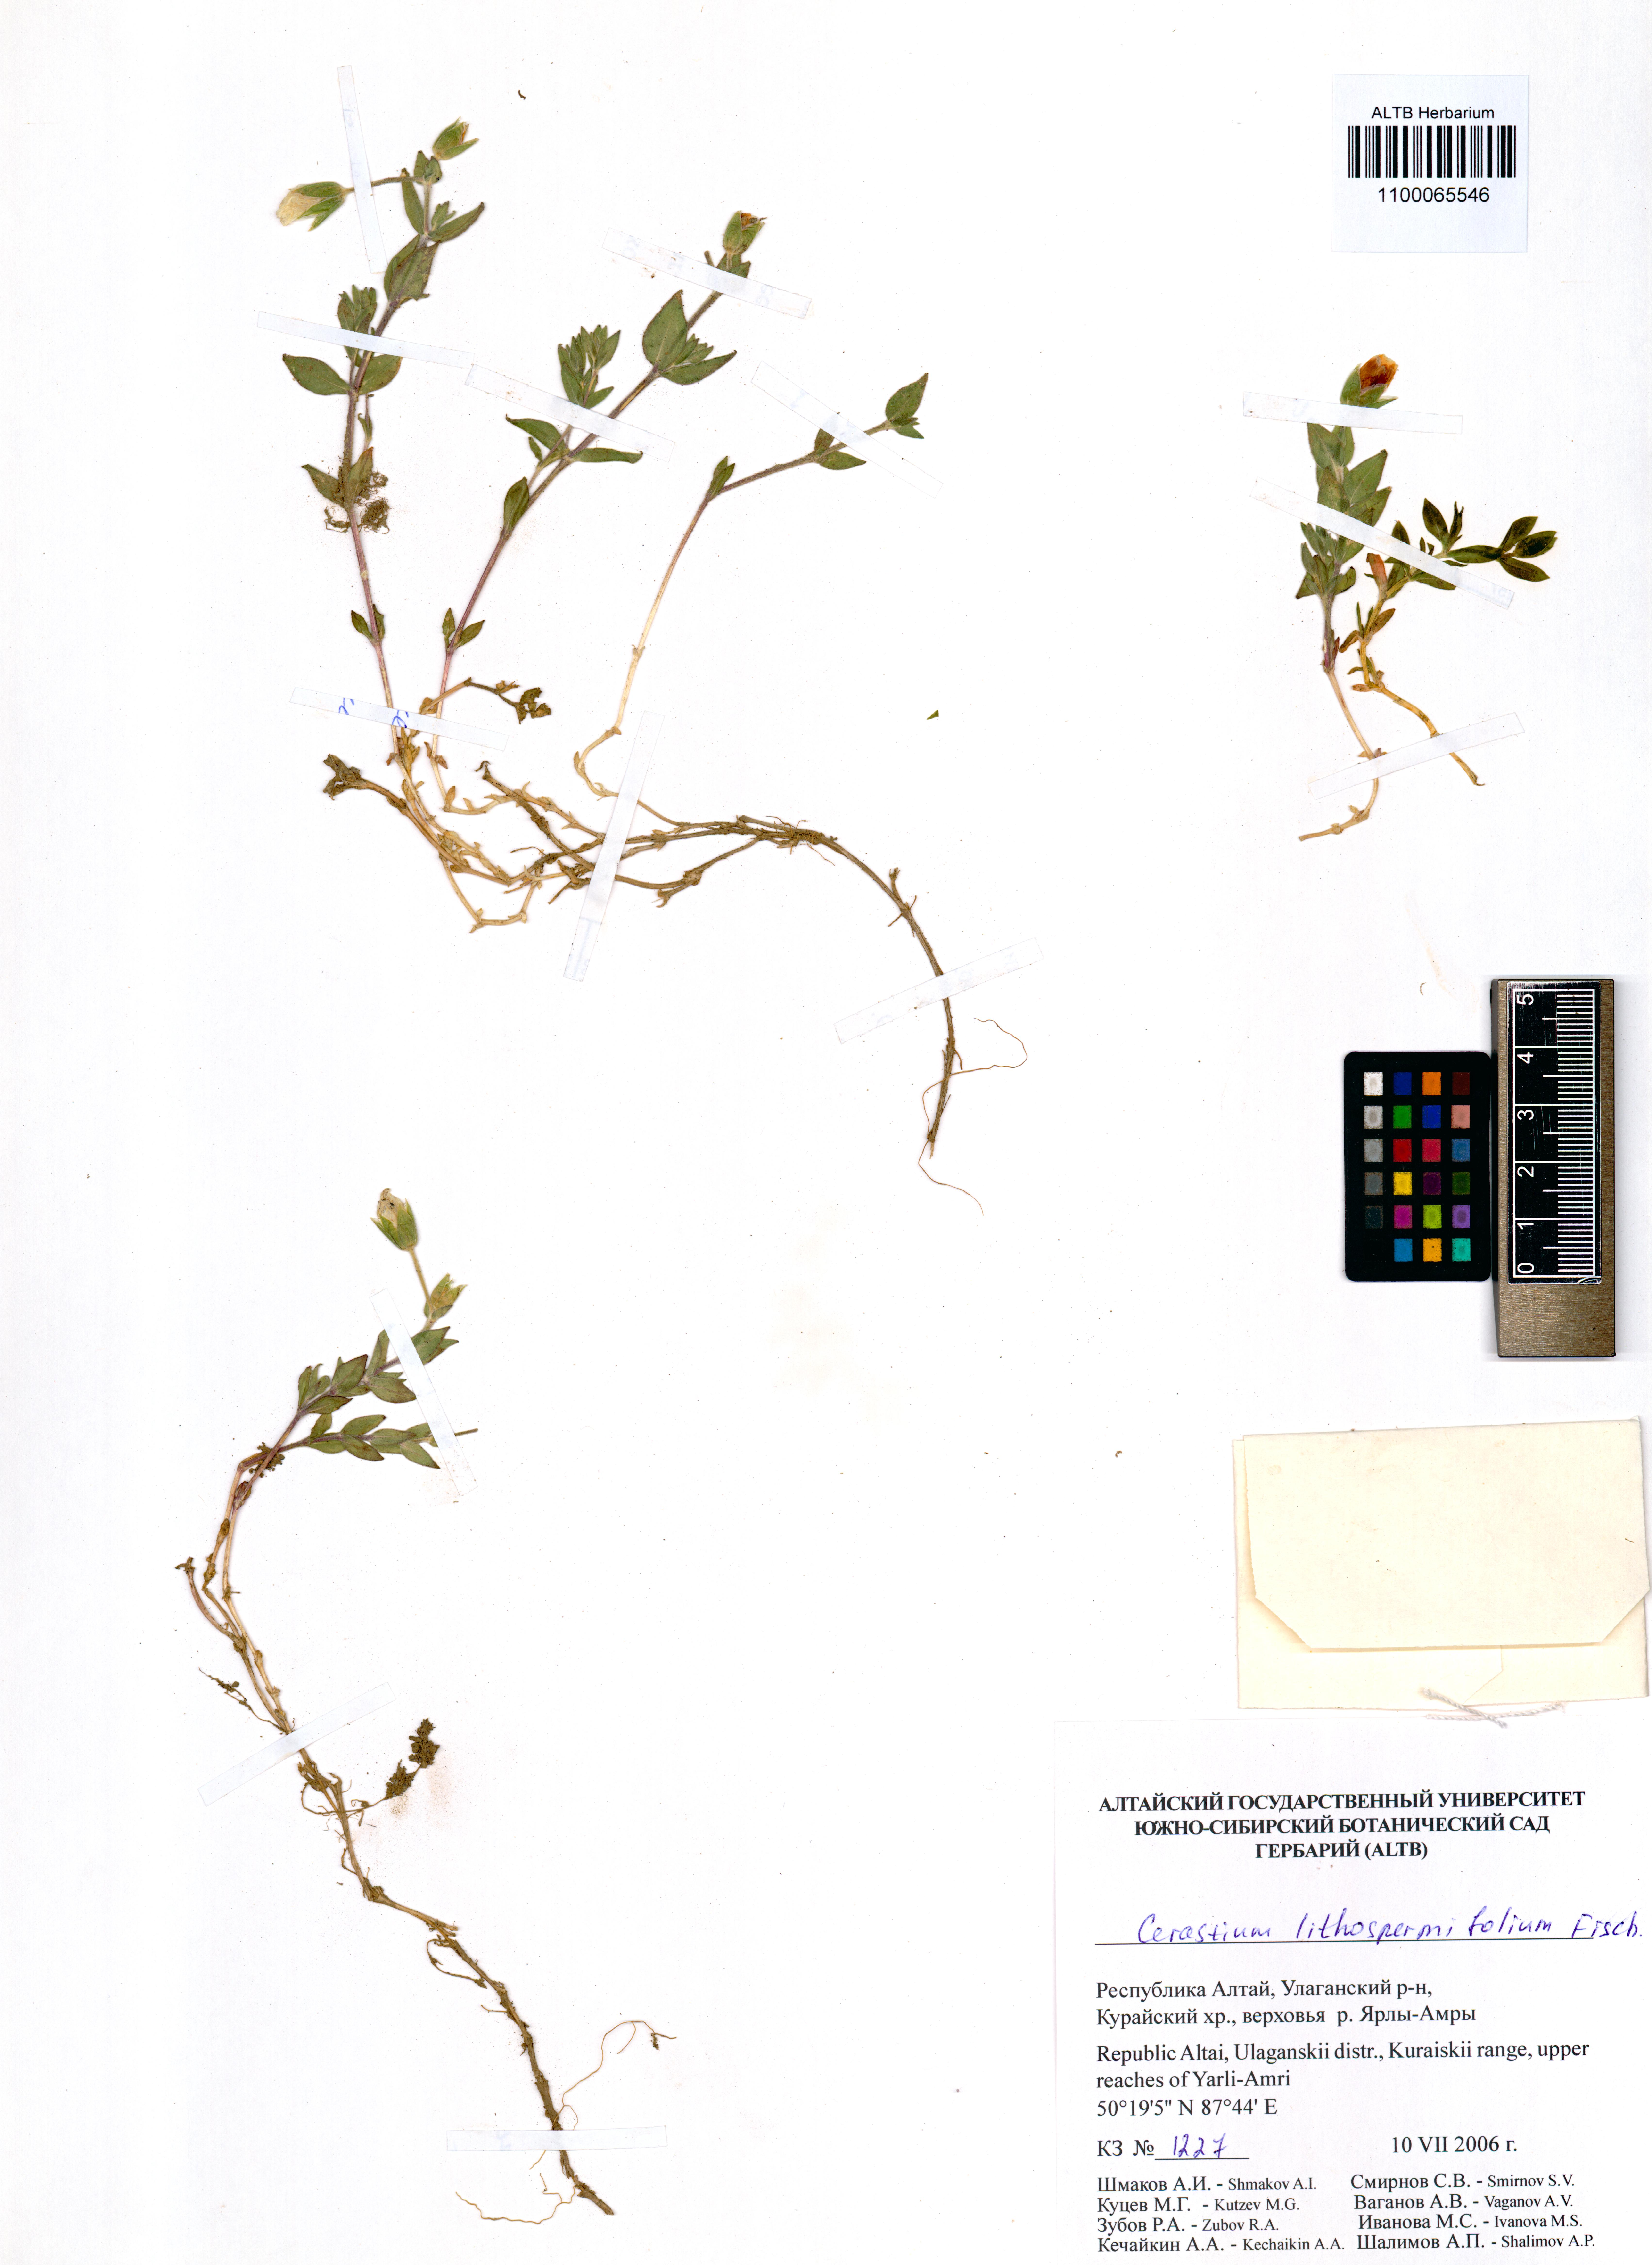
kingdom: Plantae
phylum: Tracheophyta
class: Magnoliopsida
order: Caryophyllales
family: Caryophyllaceae
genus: Cerastium
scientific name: Cerastium lithospermifolium
